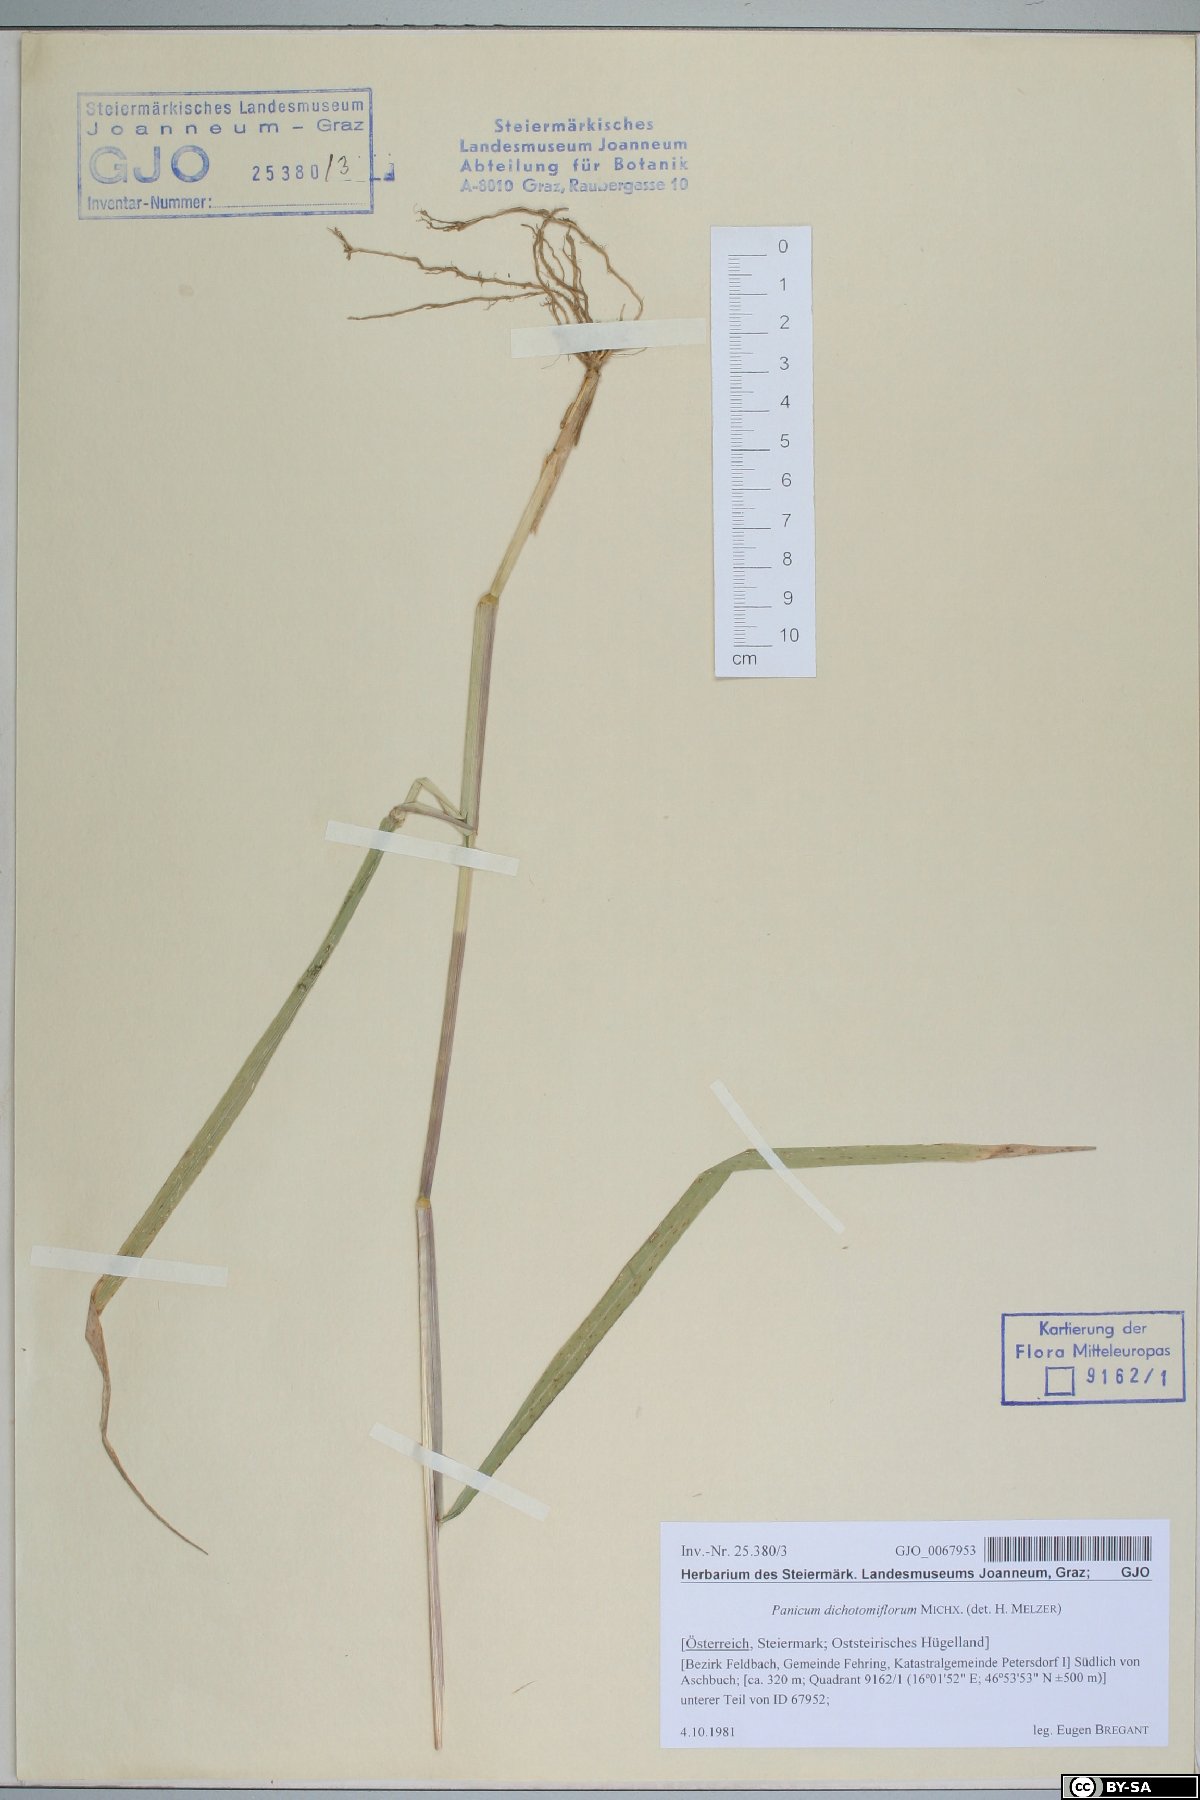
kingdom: Plantae
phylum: Tracheophyta
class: Liliopsida
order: Poales
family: Poaceae
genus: Panicum
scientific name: Panicum dichotomiflorum
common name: Autumn millet
